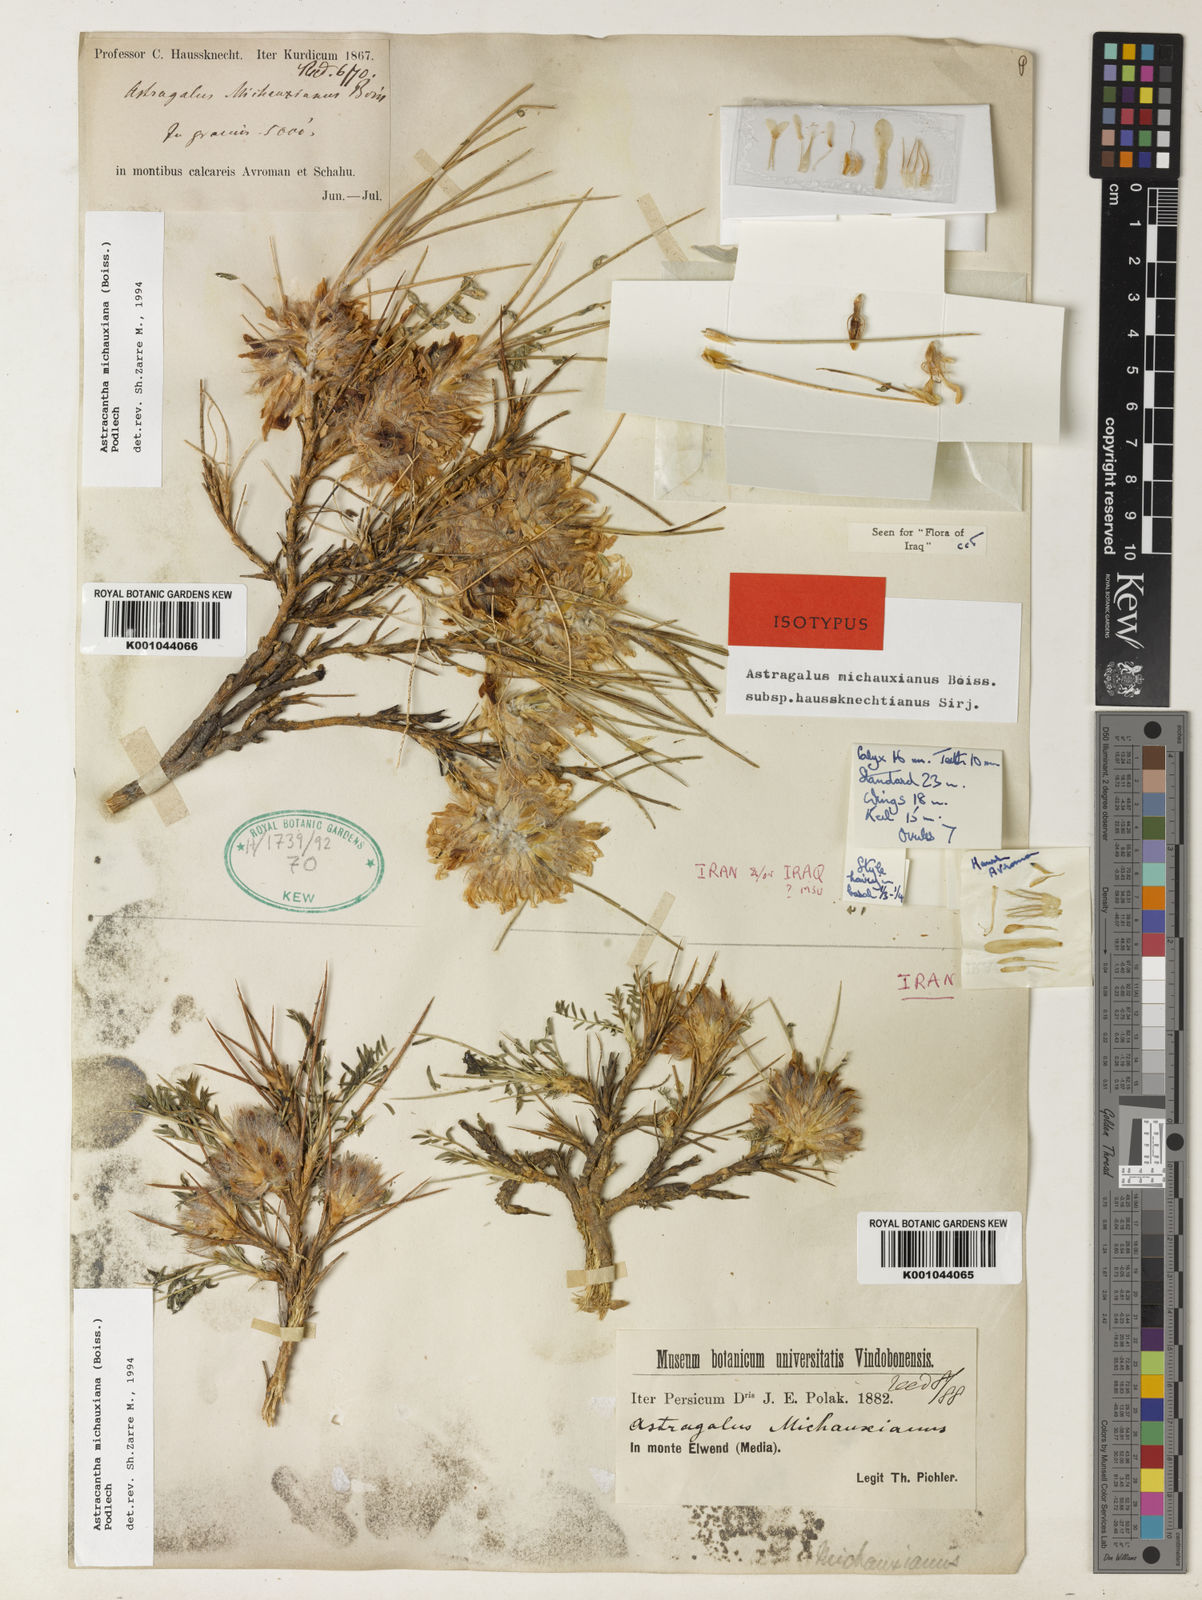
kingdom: Plantae
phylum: Tracheophyta
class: Magnoliopsida
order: Fabales
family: Fabaceae
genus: Astragalus
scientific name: Astragalus michauxianus
